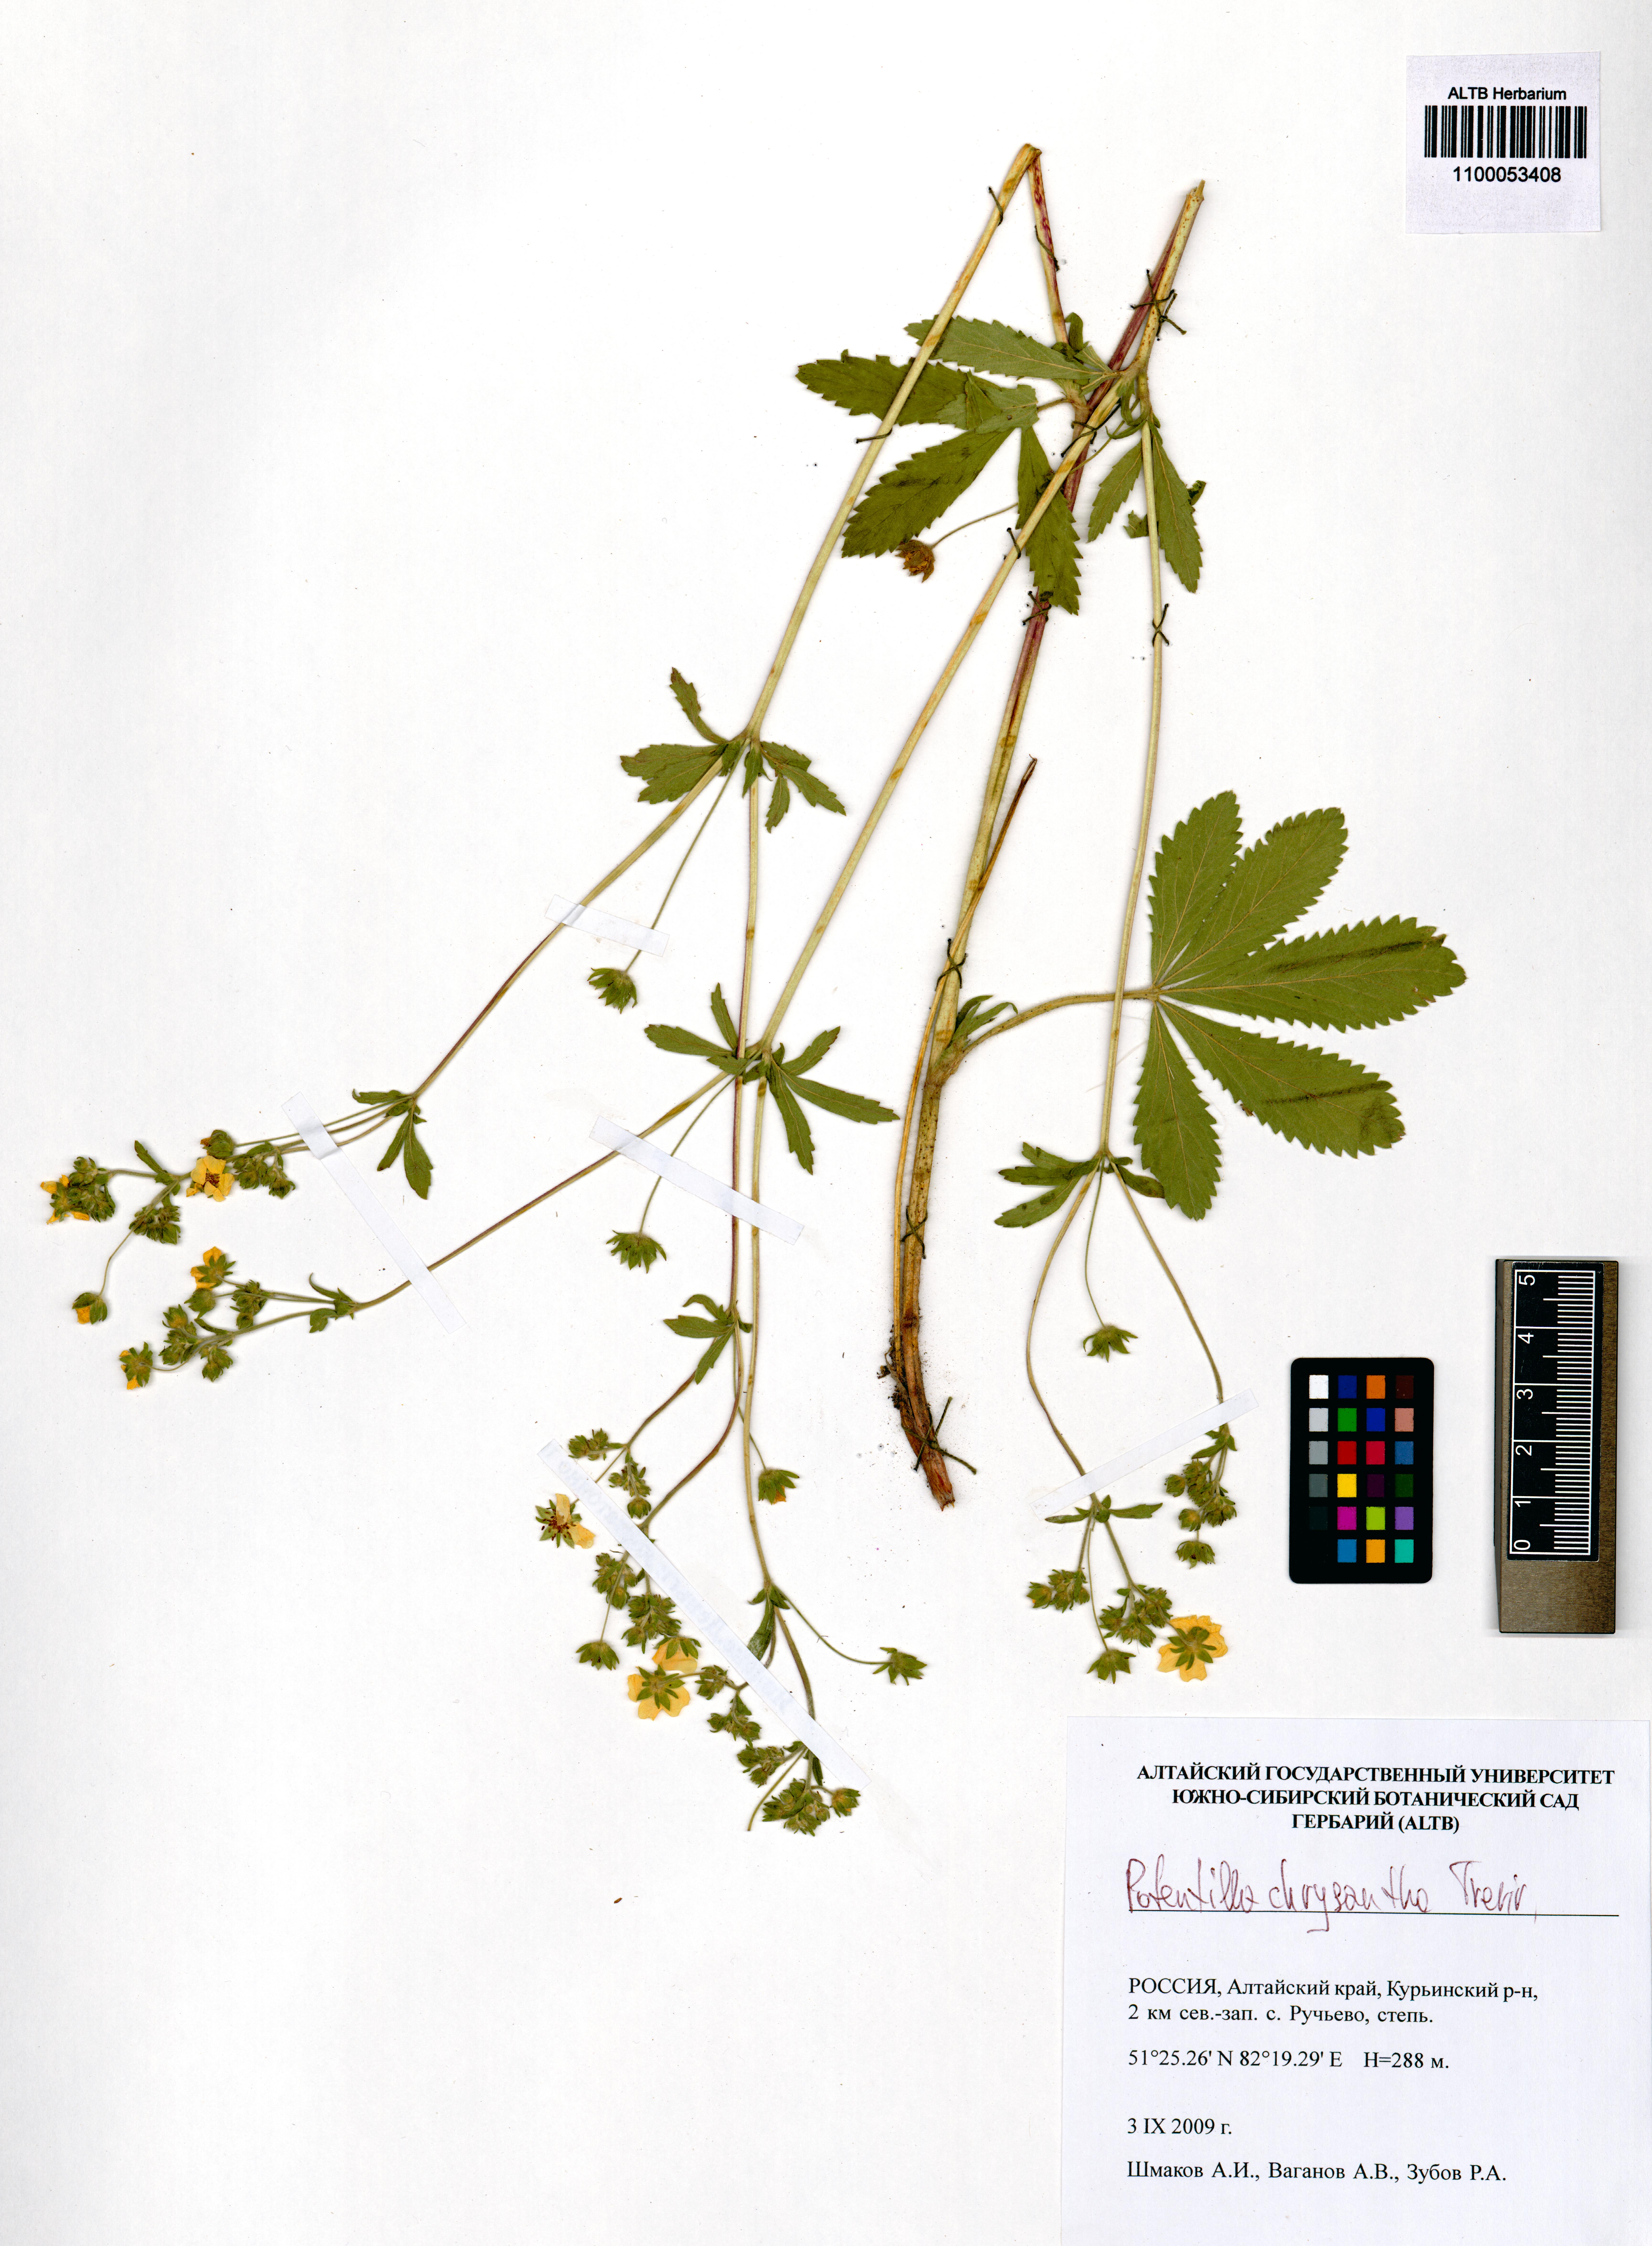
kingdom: Plantae
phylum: Tracheophyta
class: Magnoliopsida
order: Rosales
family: Rosaceae
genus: Potentilla
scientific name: Potentilla chrysantha
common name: Thuringian cinquefoil
